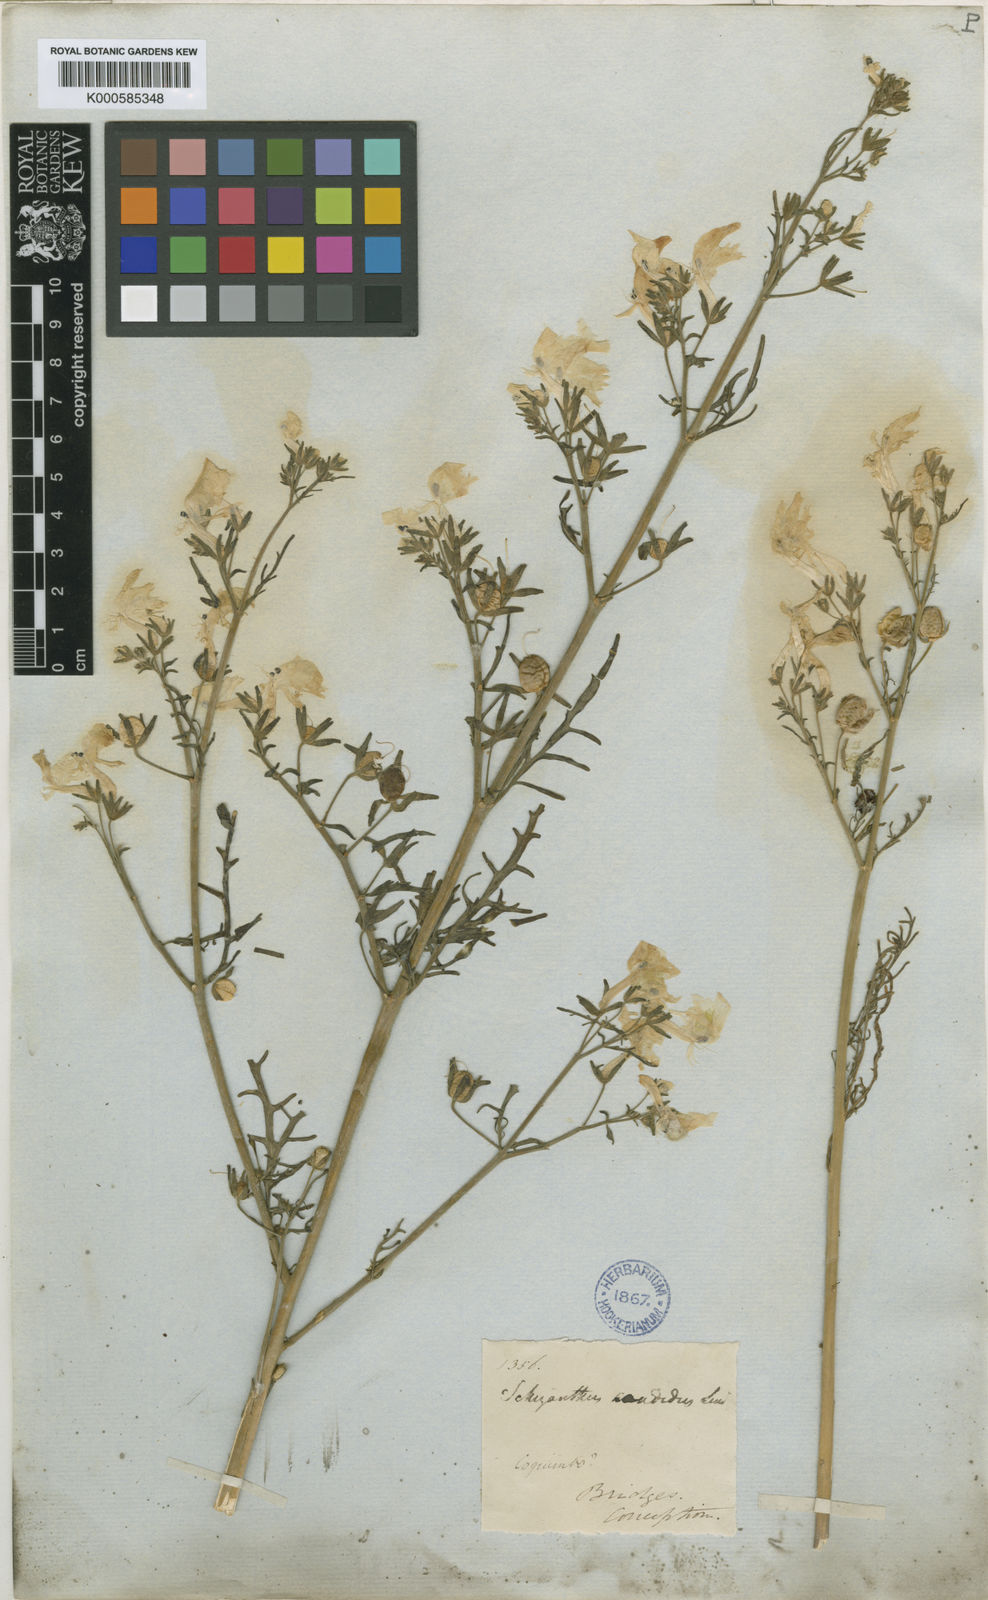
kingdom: Plantae
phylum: Tracheophyta
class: Magnoliopsida
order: Solanales
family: Solanaceae
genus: Schizanthus
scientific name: Schizanthus candidus
